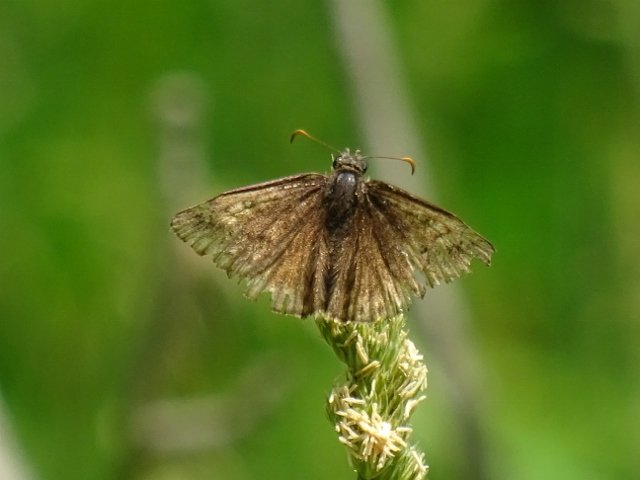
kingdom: Animalia
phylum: Arthropoda
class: Insecta
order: Lepidoptera
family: Hesperiidae
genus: Erynnis
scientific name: Erynnis
